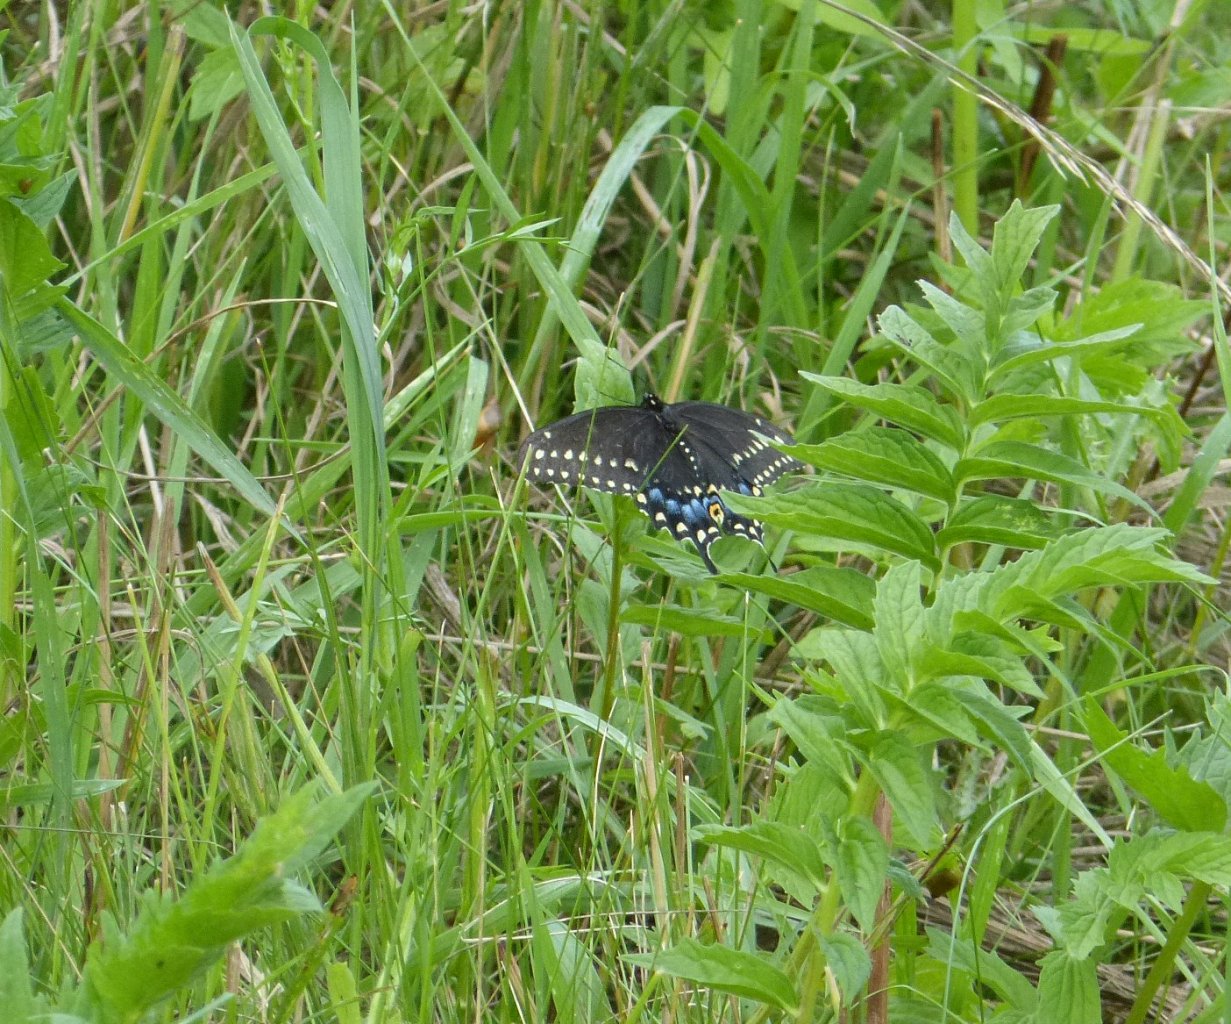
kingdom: Animalia
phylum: Arthropoda
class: Insecta
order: Lepidoptera
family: Papilionidae
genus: Papilio
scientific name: Papilio polyxenes
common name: Black Swallowtail
